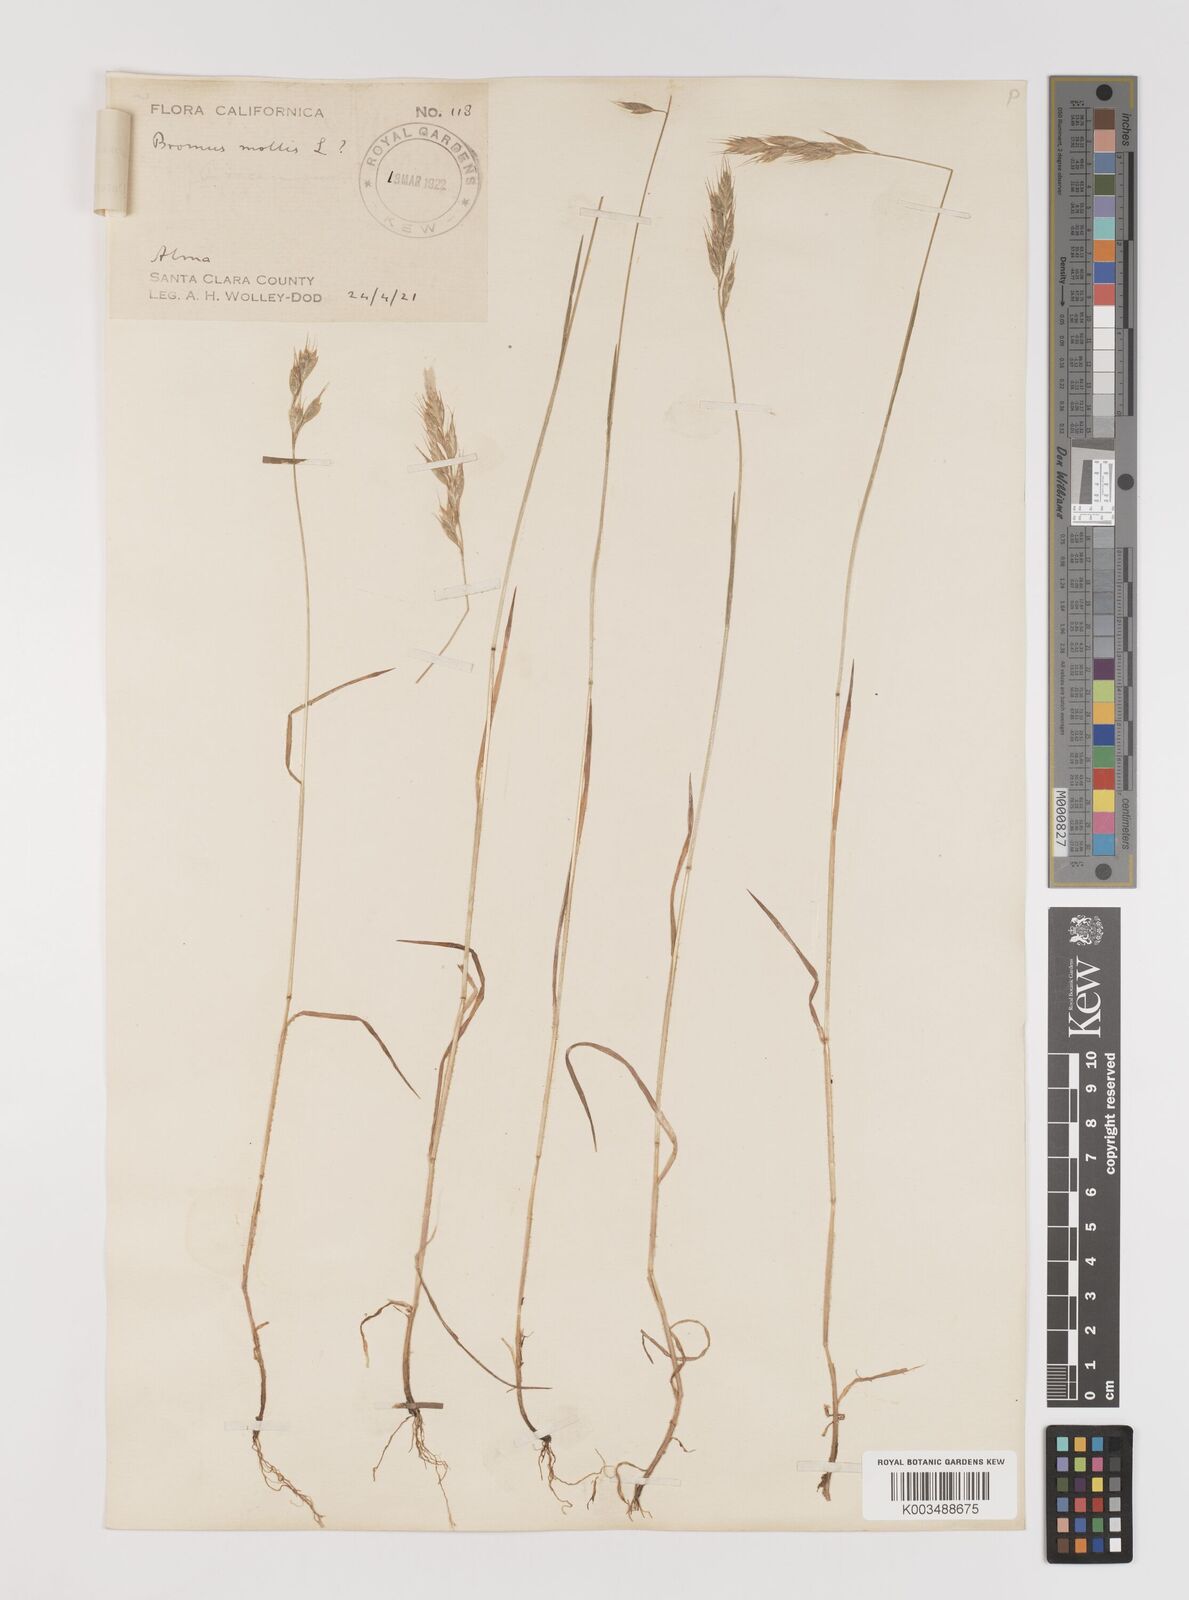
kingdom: Plantae
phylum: Tracheophyta
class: Liliopsida
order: Poales
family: Poaceae
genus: Bromus
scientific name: Bromus hordeaceus
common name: Soft brome
